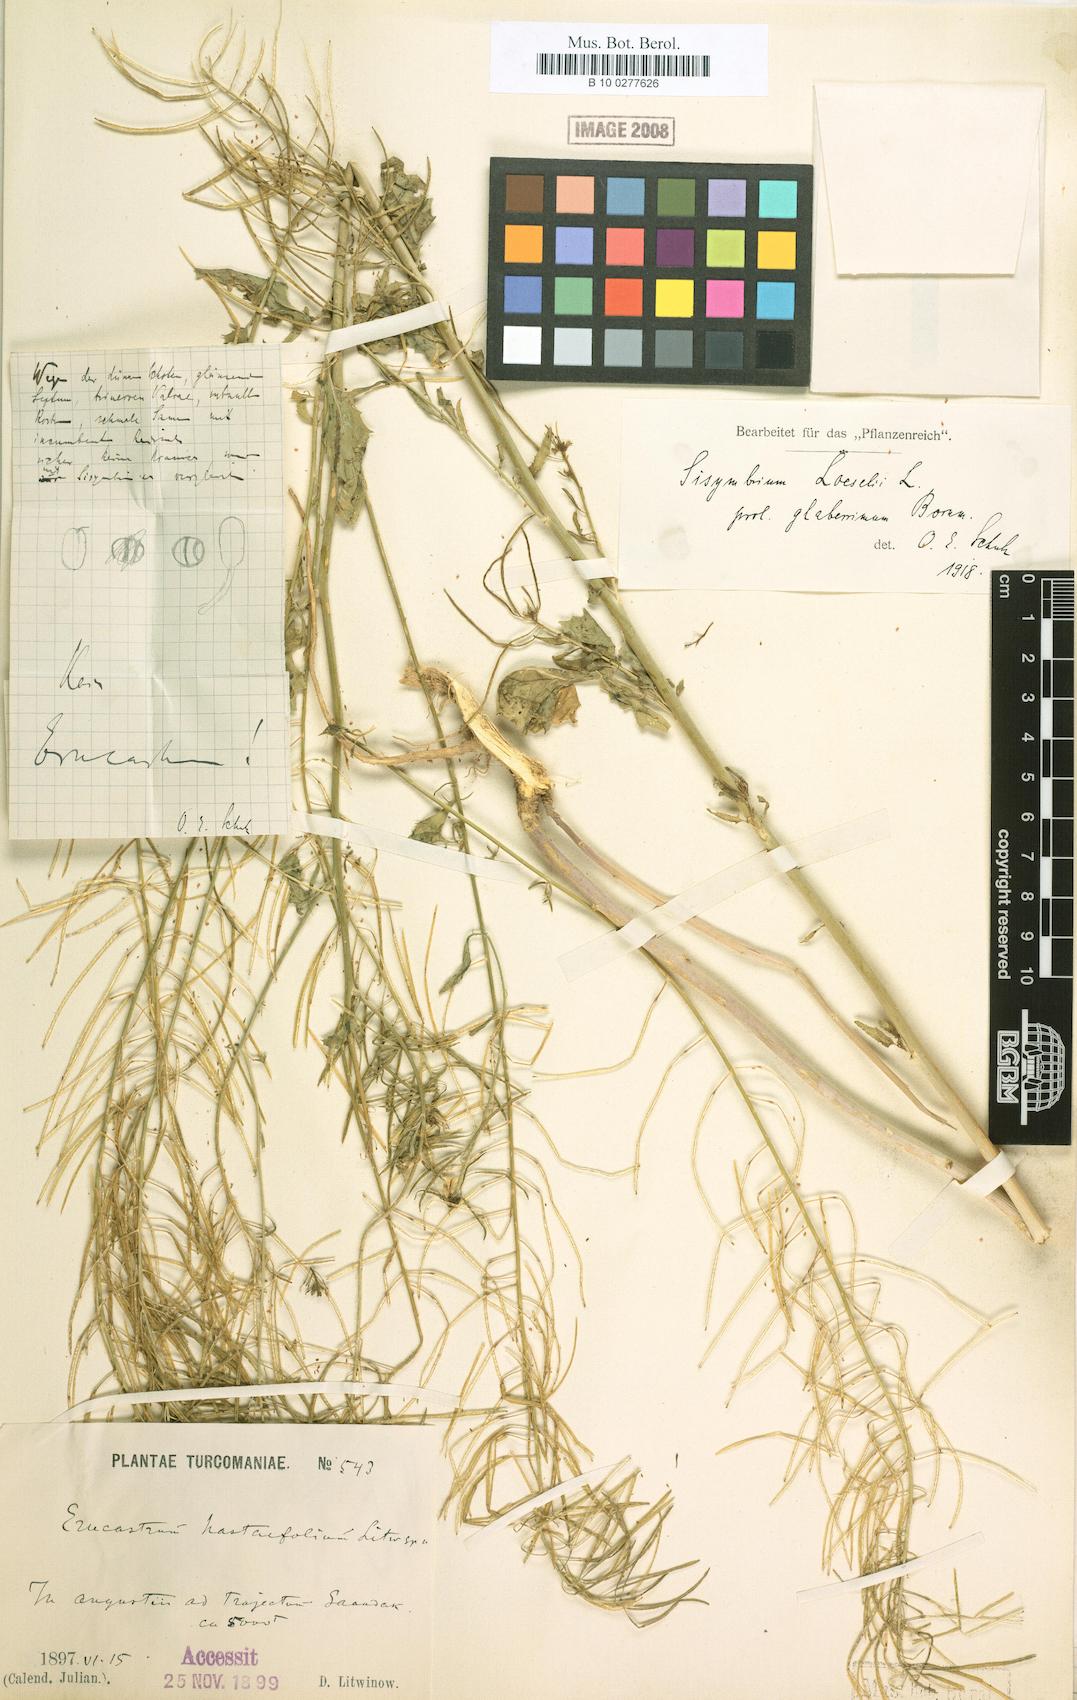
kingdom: Plantae
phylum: Tracheophyta
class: Magnoliopsida
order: Brassicales
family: Brassicaceae
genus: Sisymbrium
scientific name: Sisymbrium loeselii
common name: False london-rocket
